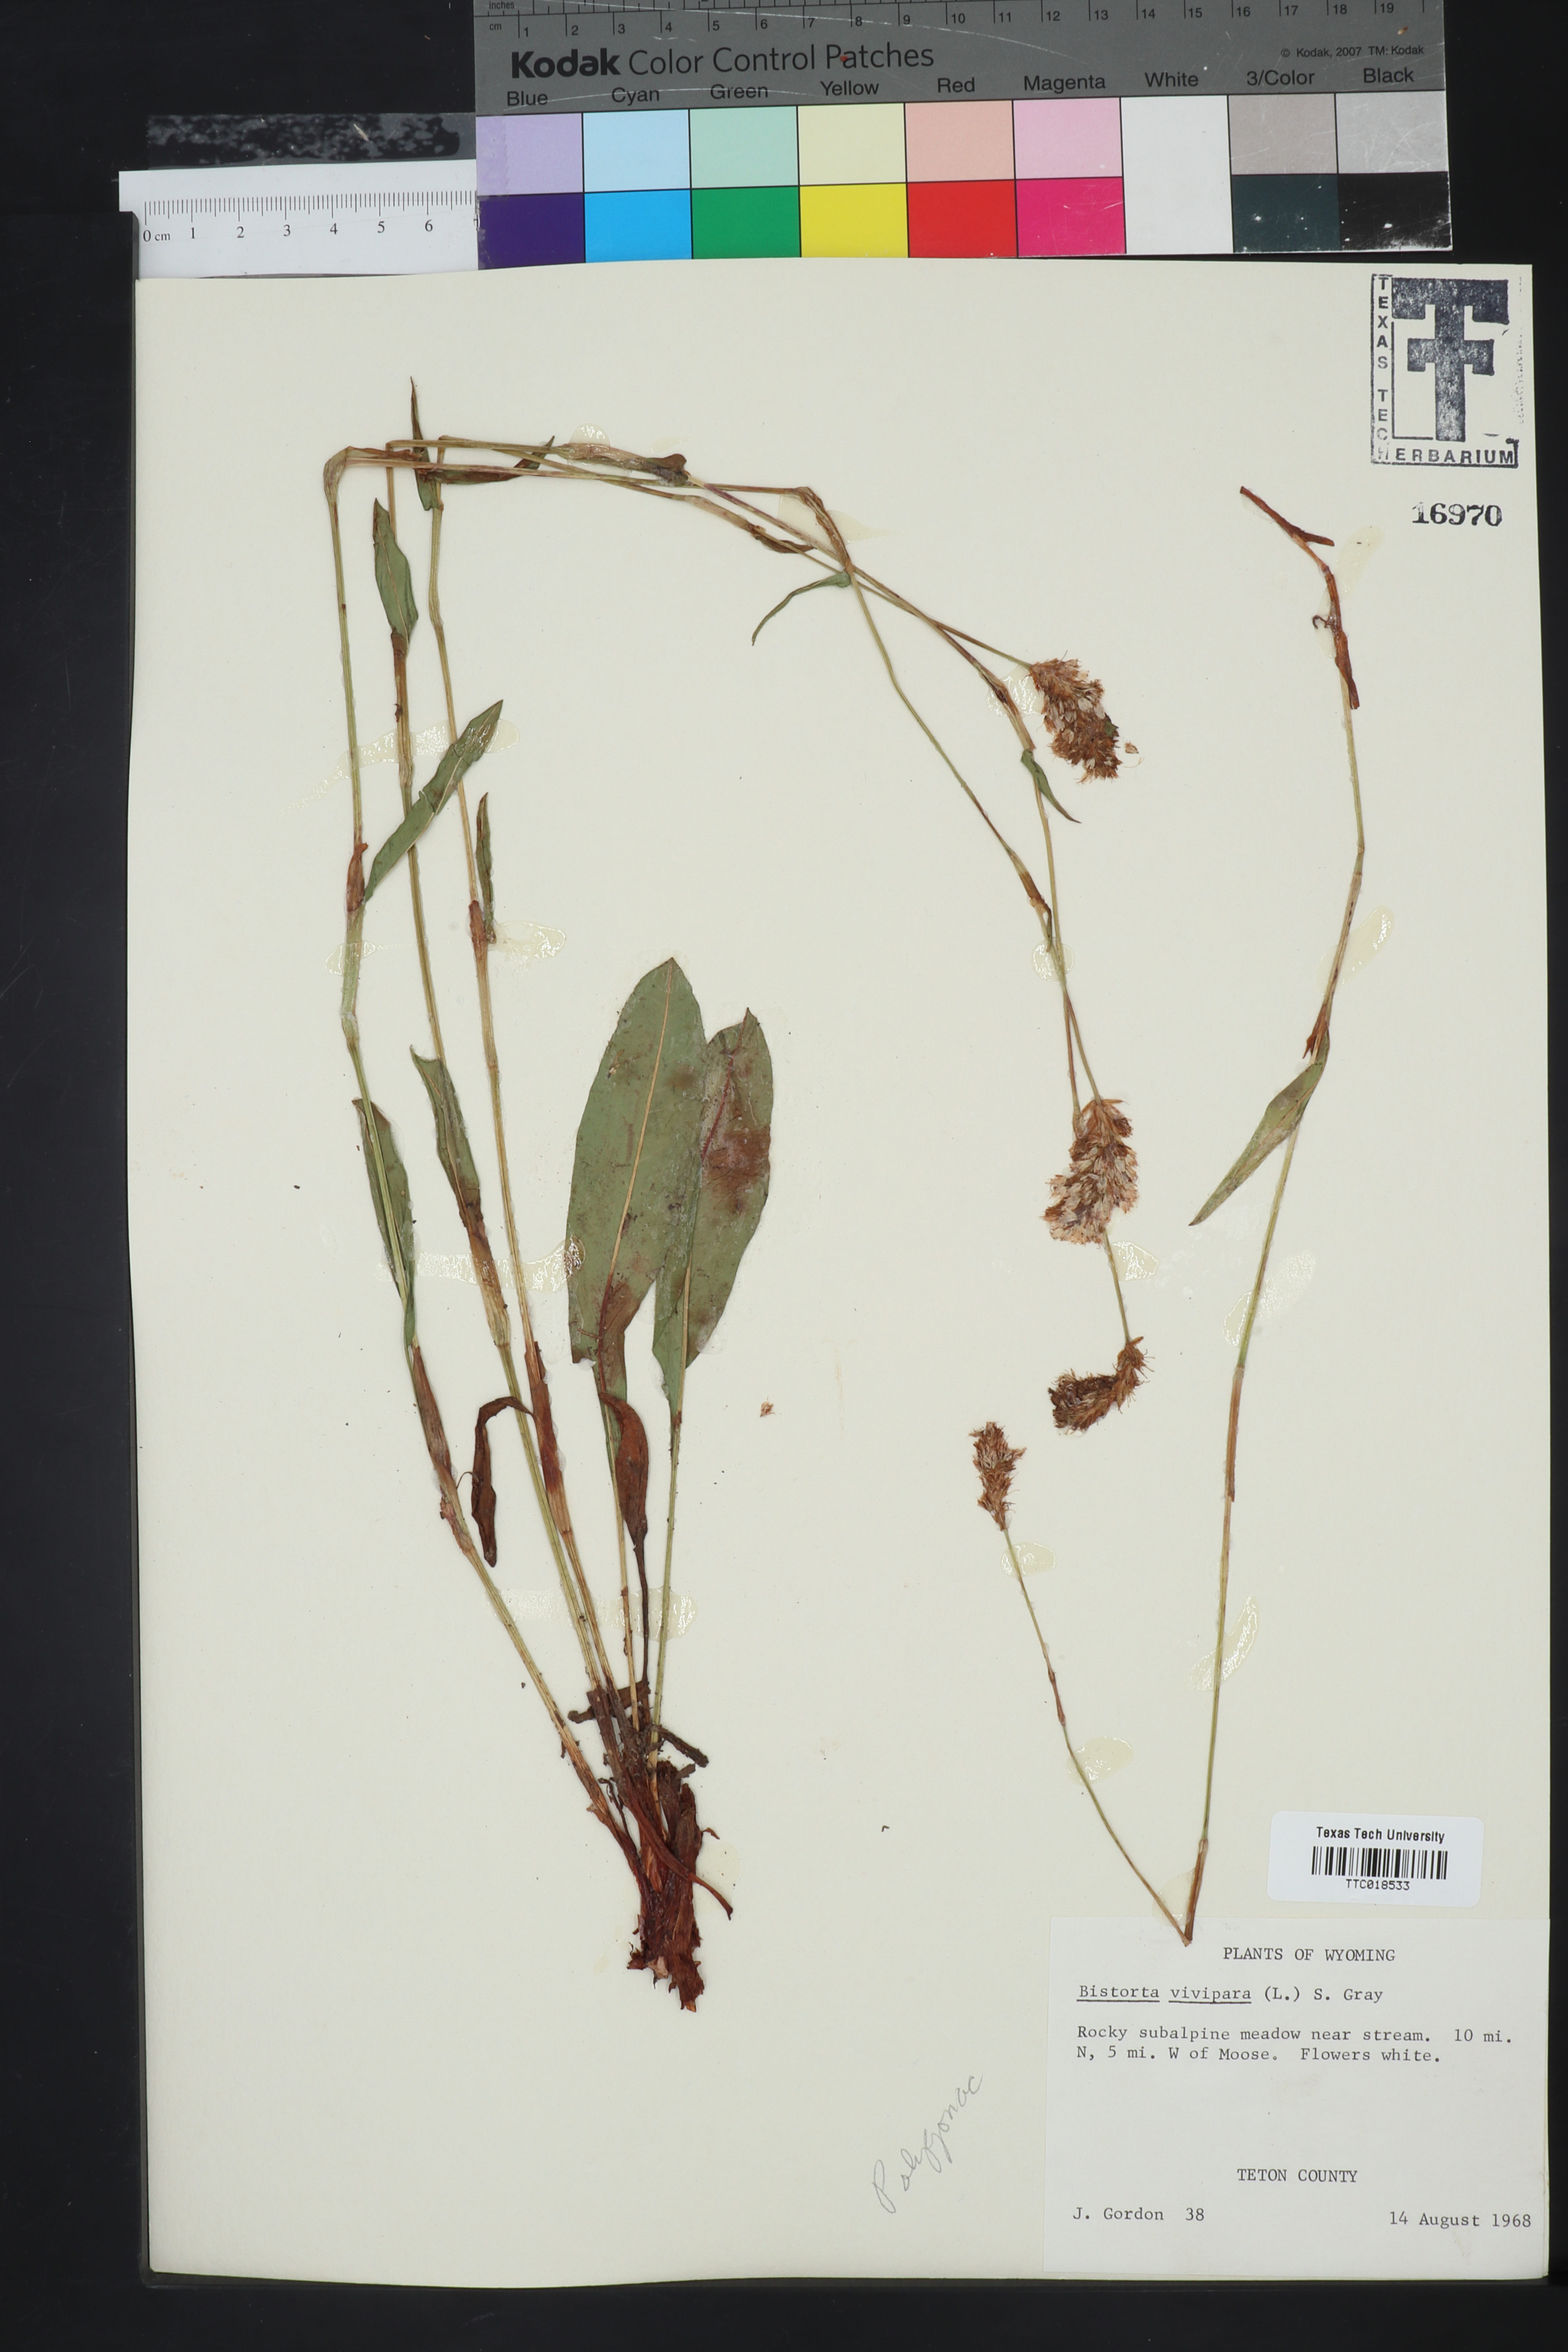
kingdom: Plantae
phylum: Tracheophyta
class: Magnoliopsida
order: Caryophyllales
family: Polygonaceae
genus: Bistorta
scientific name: Bistorta vivipara
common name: Alpine bistort
